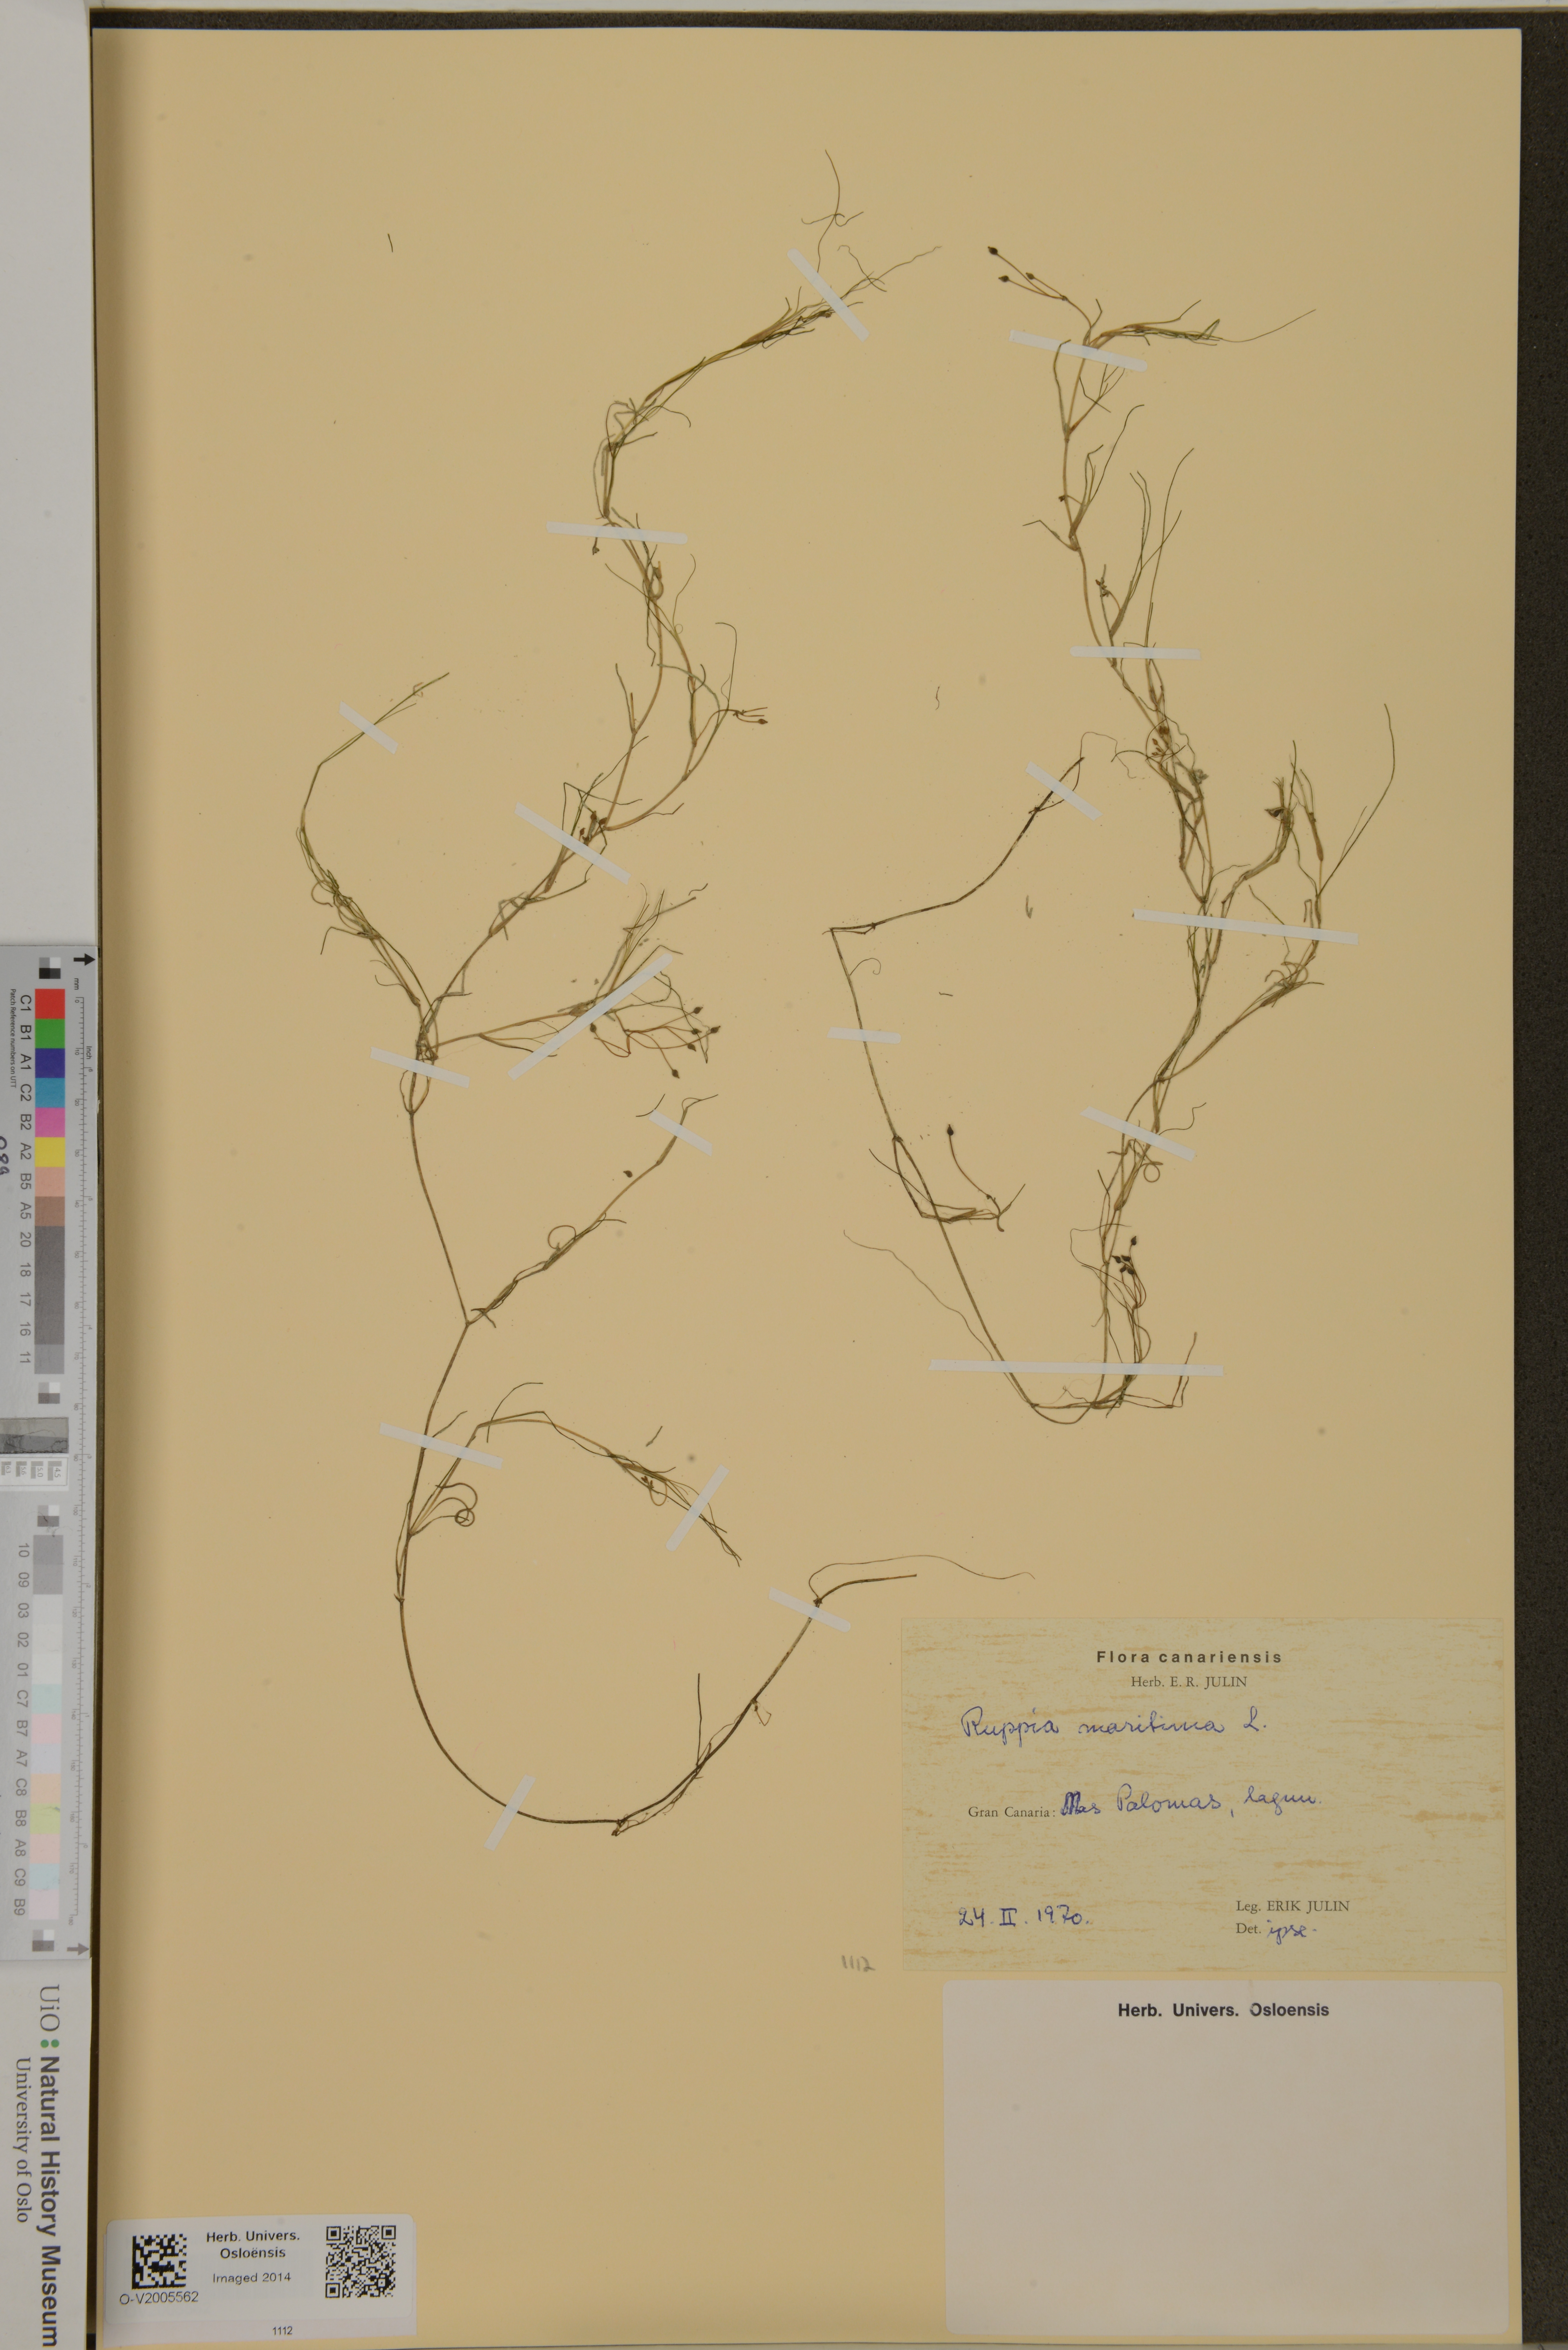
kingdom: Plantae
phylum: Tracheophyta
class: Liliopsida
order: Alismatales
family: Ruppiaceae
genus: Ruppia
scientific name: Ruppia maritima
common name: Beaked tasselweed
